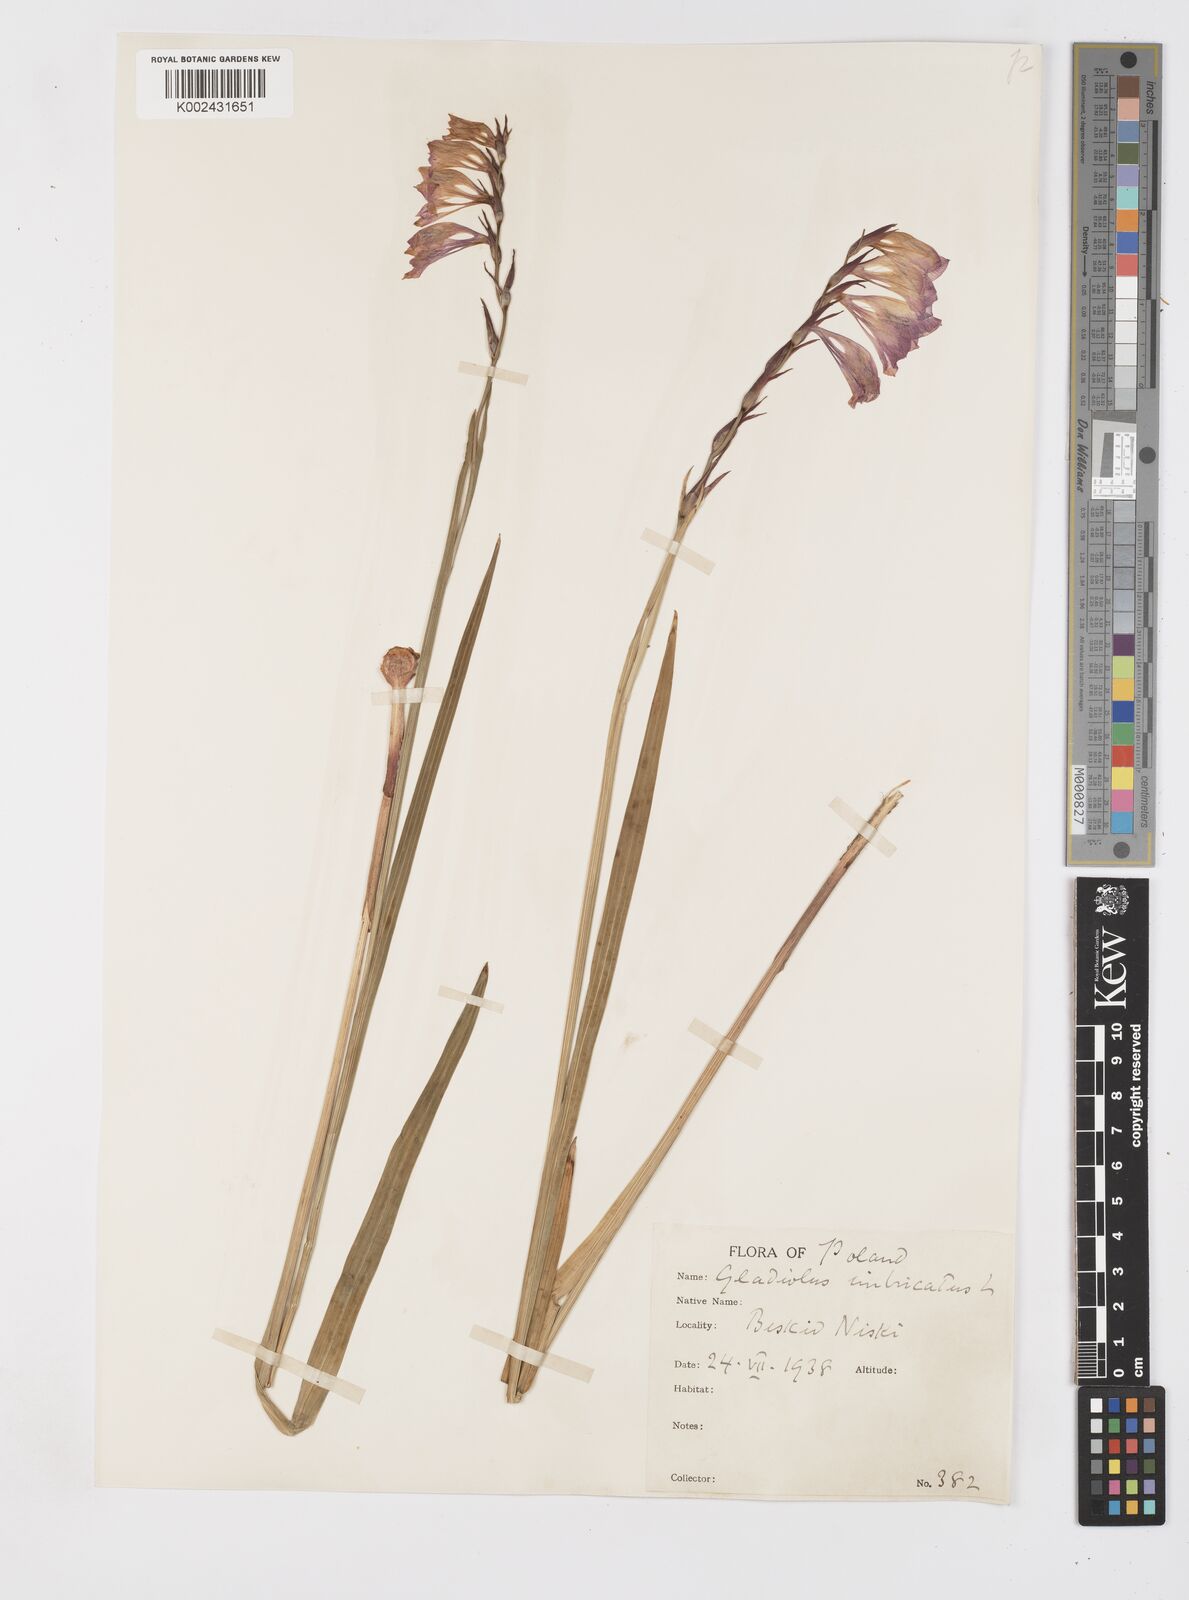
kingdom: Plantae
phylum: Tracheophyta
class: Liliopsida
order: Asparagales
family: Iridaceae
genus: Gladiolus
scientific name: Gladiolus imbricatus
